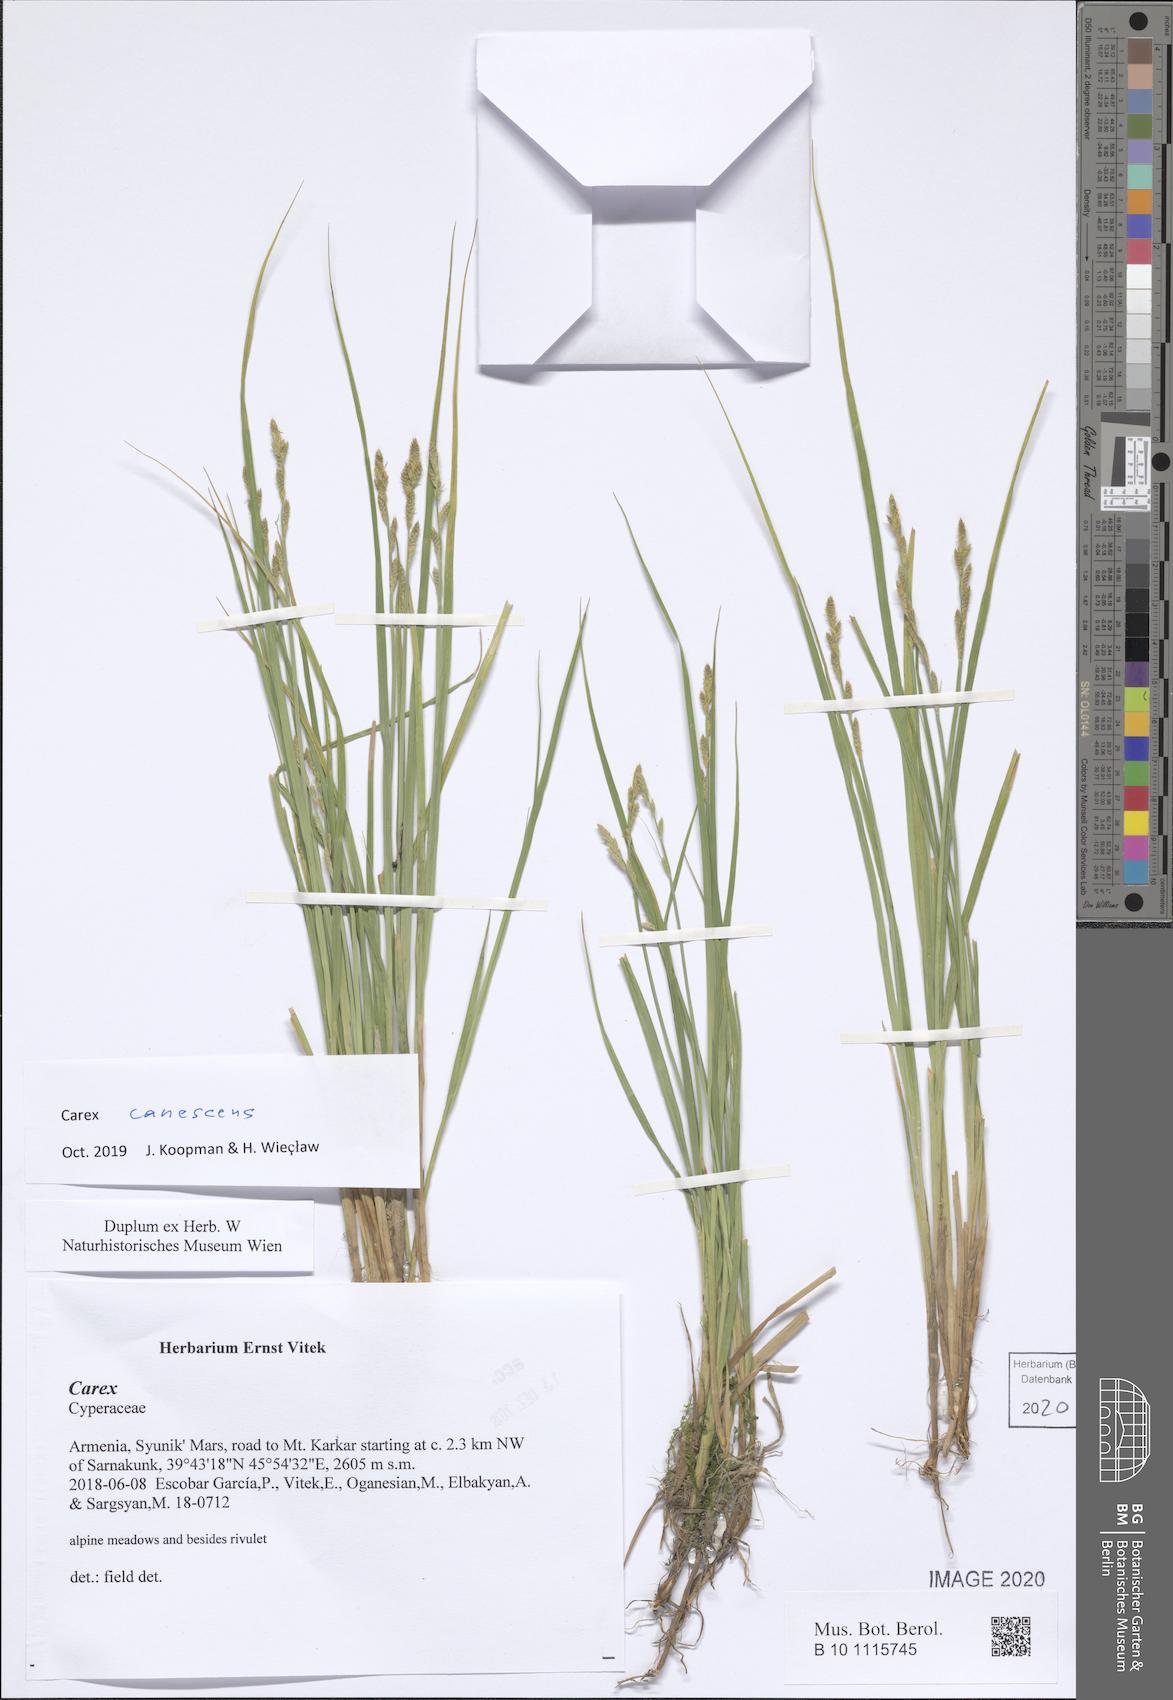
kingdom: Plantae
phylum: Tracheophyta
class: Liliopsida
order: Poales
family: Cyperaceae
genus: Carex
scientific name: Carex canescens
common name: White sedge
